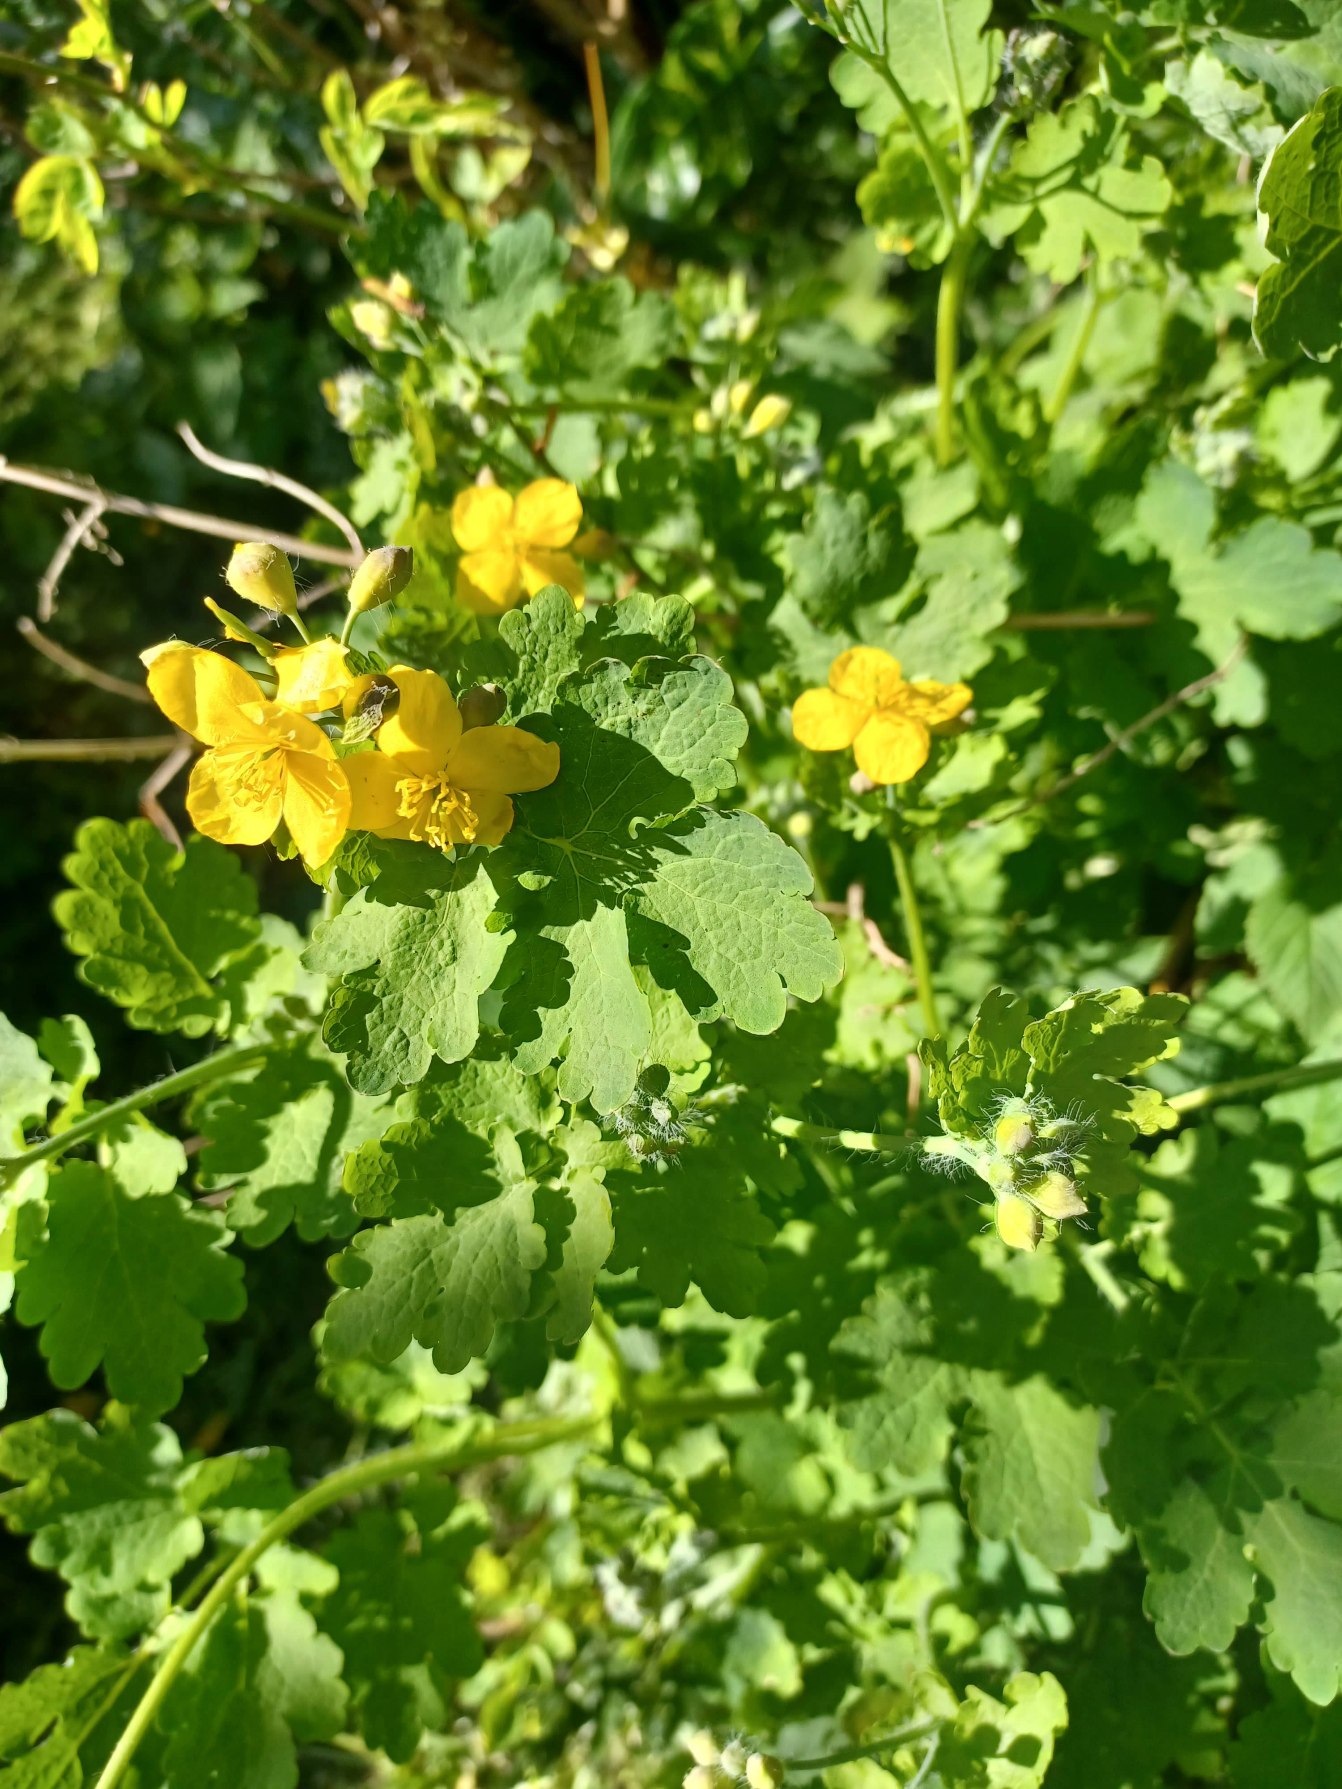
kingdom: Plantae
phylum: Tracheophyta
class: Magnoliopsida
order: Ranunculales
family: Papaveraceae
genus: Chelidonium
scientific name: Chelidonium majus
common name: Svaleurt
